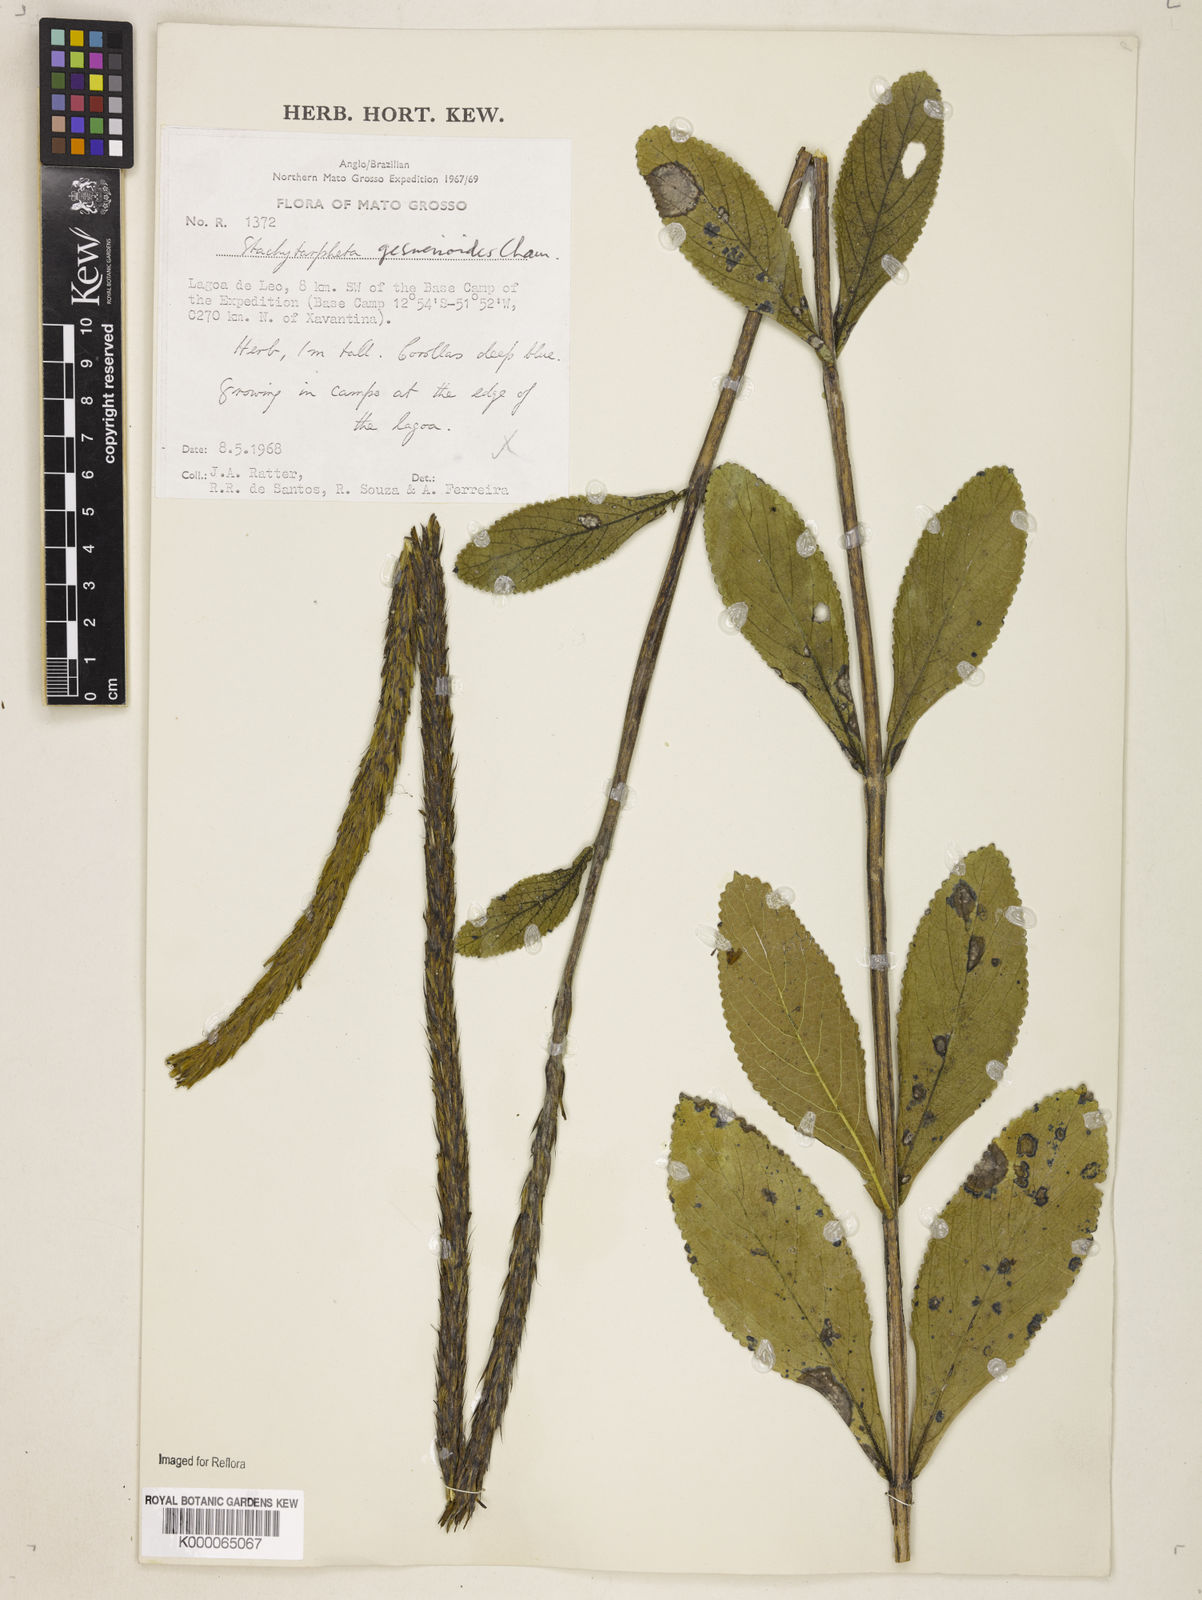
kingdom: Plantae
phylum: Tracheophyta
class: Magnoliopsida
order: Lamiales
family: Verbenaceae
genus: Stachytarpheta
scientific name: Stachytarpheta gesnerioides
